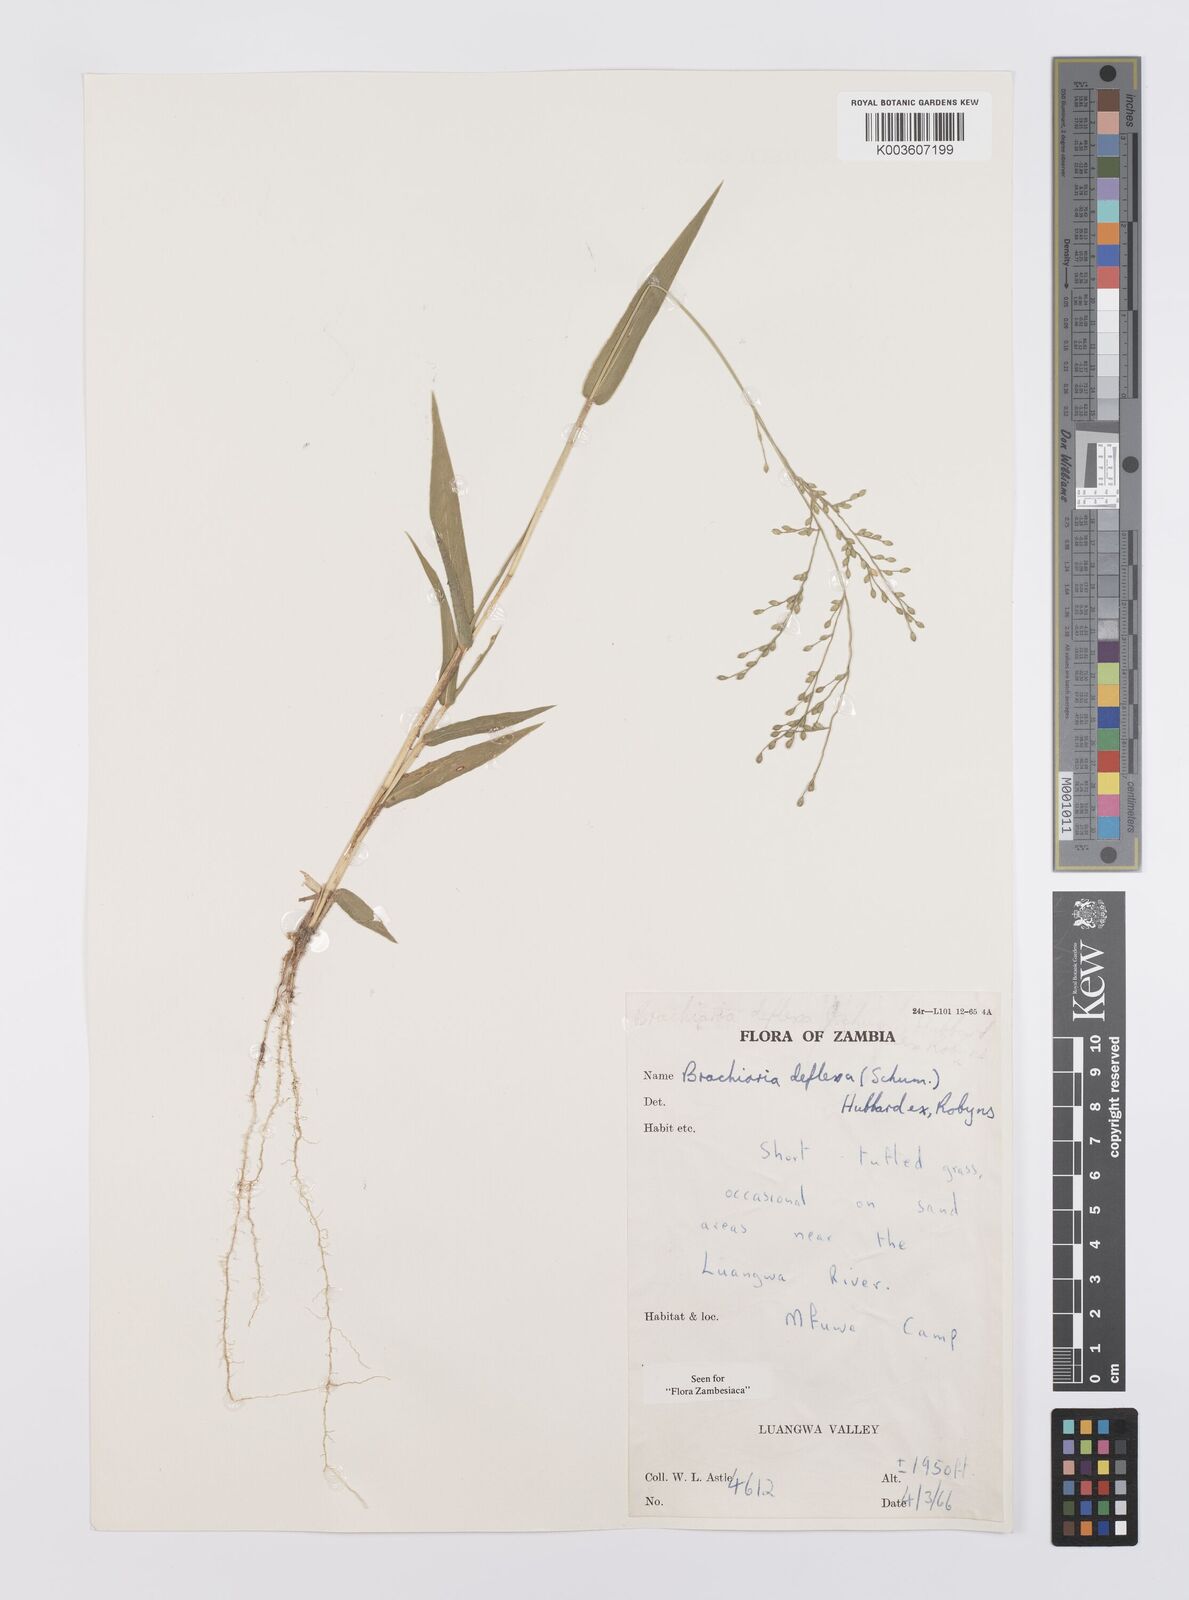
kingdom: Plantae
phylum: Tracheophyta
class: Liliopsida
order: Poales
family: Poaceae
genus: Urochloa
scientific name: Urochloa deflexa
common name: Guinea millet
